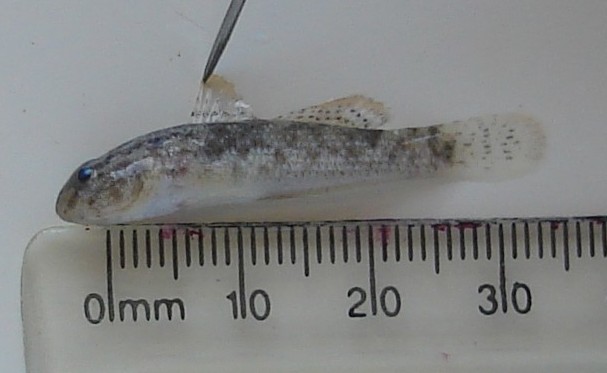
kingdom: Animalia
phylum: Chordata
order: Perciformes
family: Gobiidae
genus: Bathygobius
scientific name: Bathygobius
